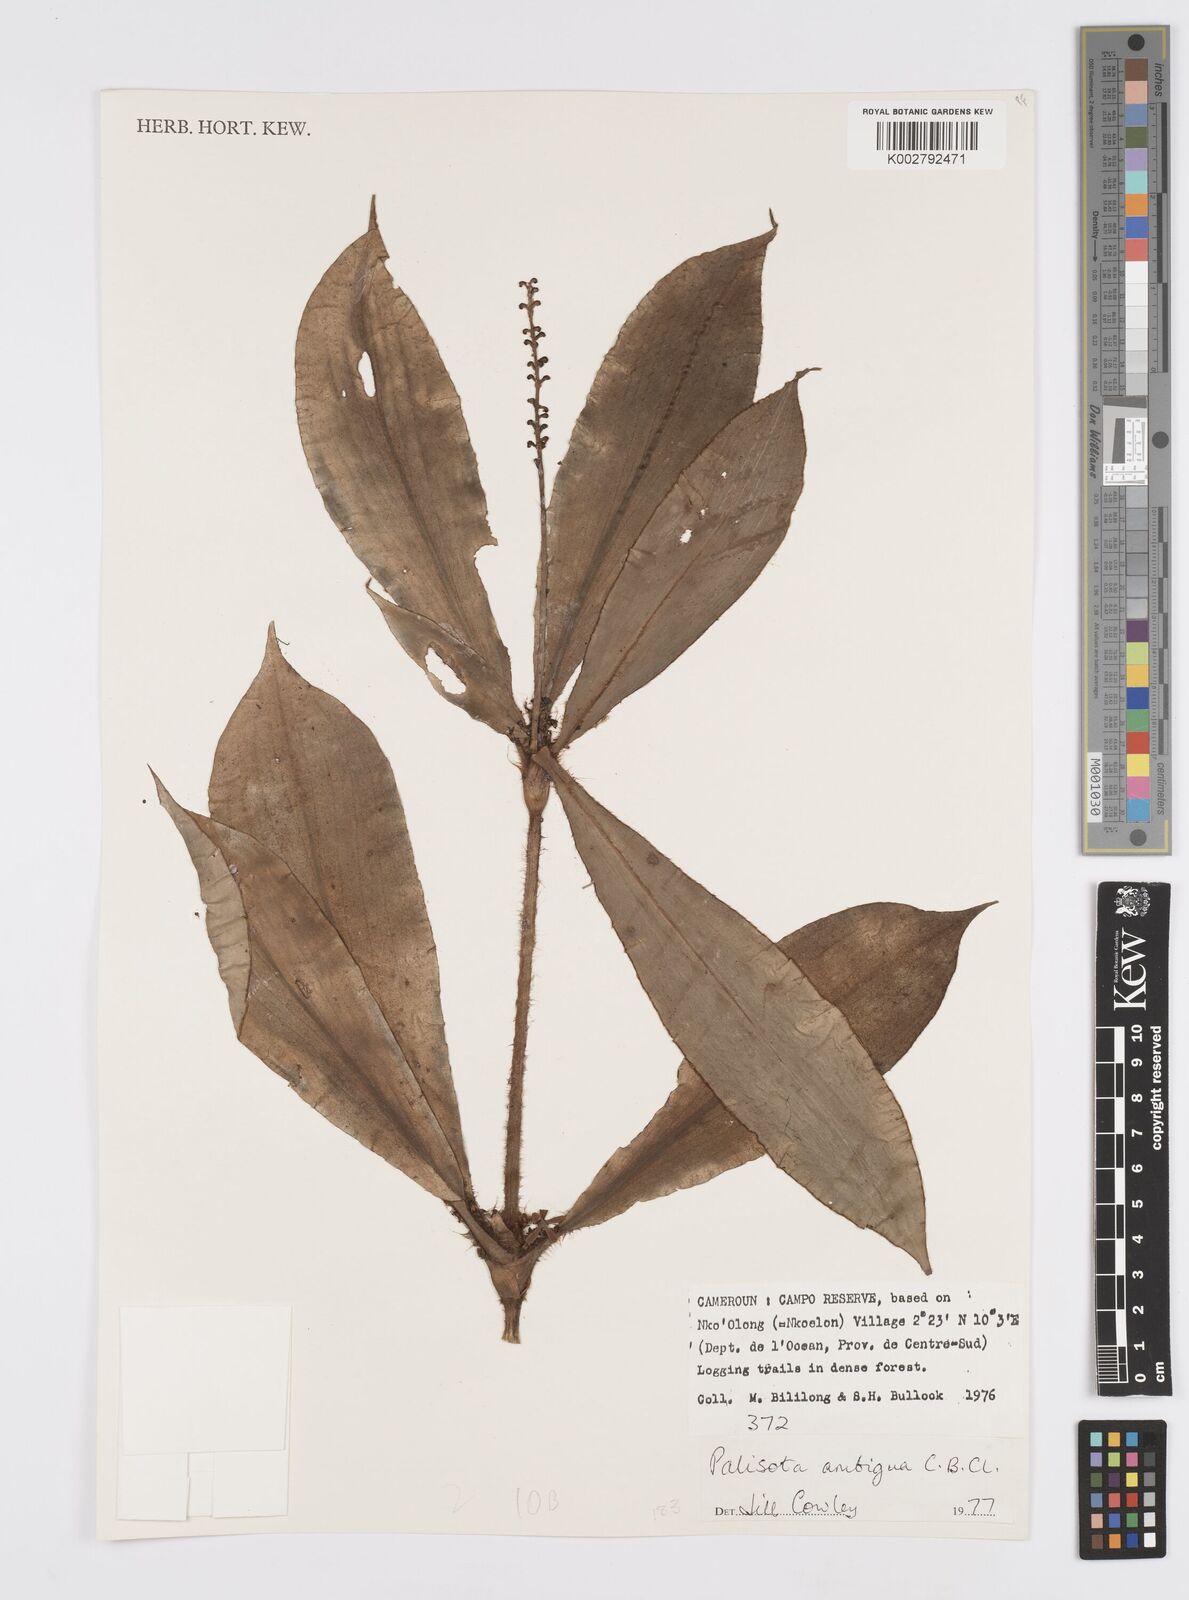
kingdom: Plantae
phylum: Tracheophyta
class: Liliopsida
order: Commelinales
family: Commelinaceae
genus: Palisota
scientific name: Palisota ambigua
